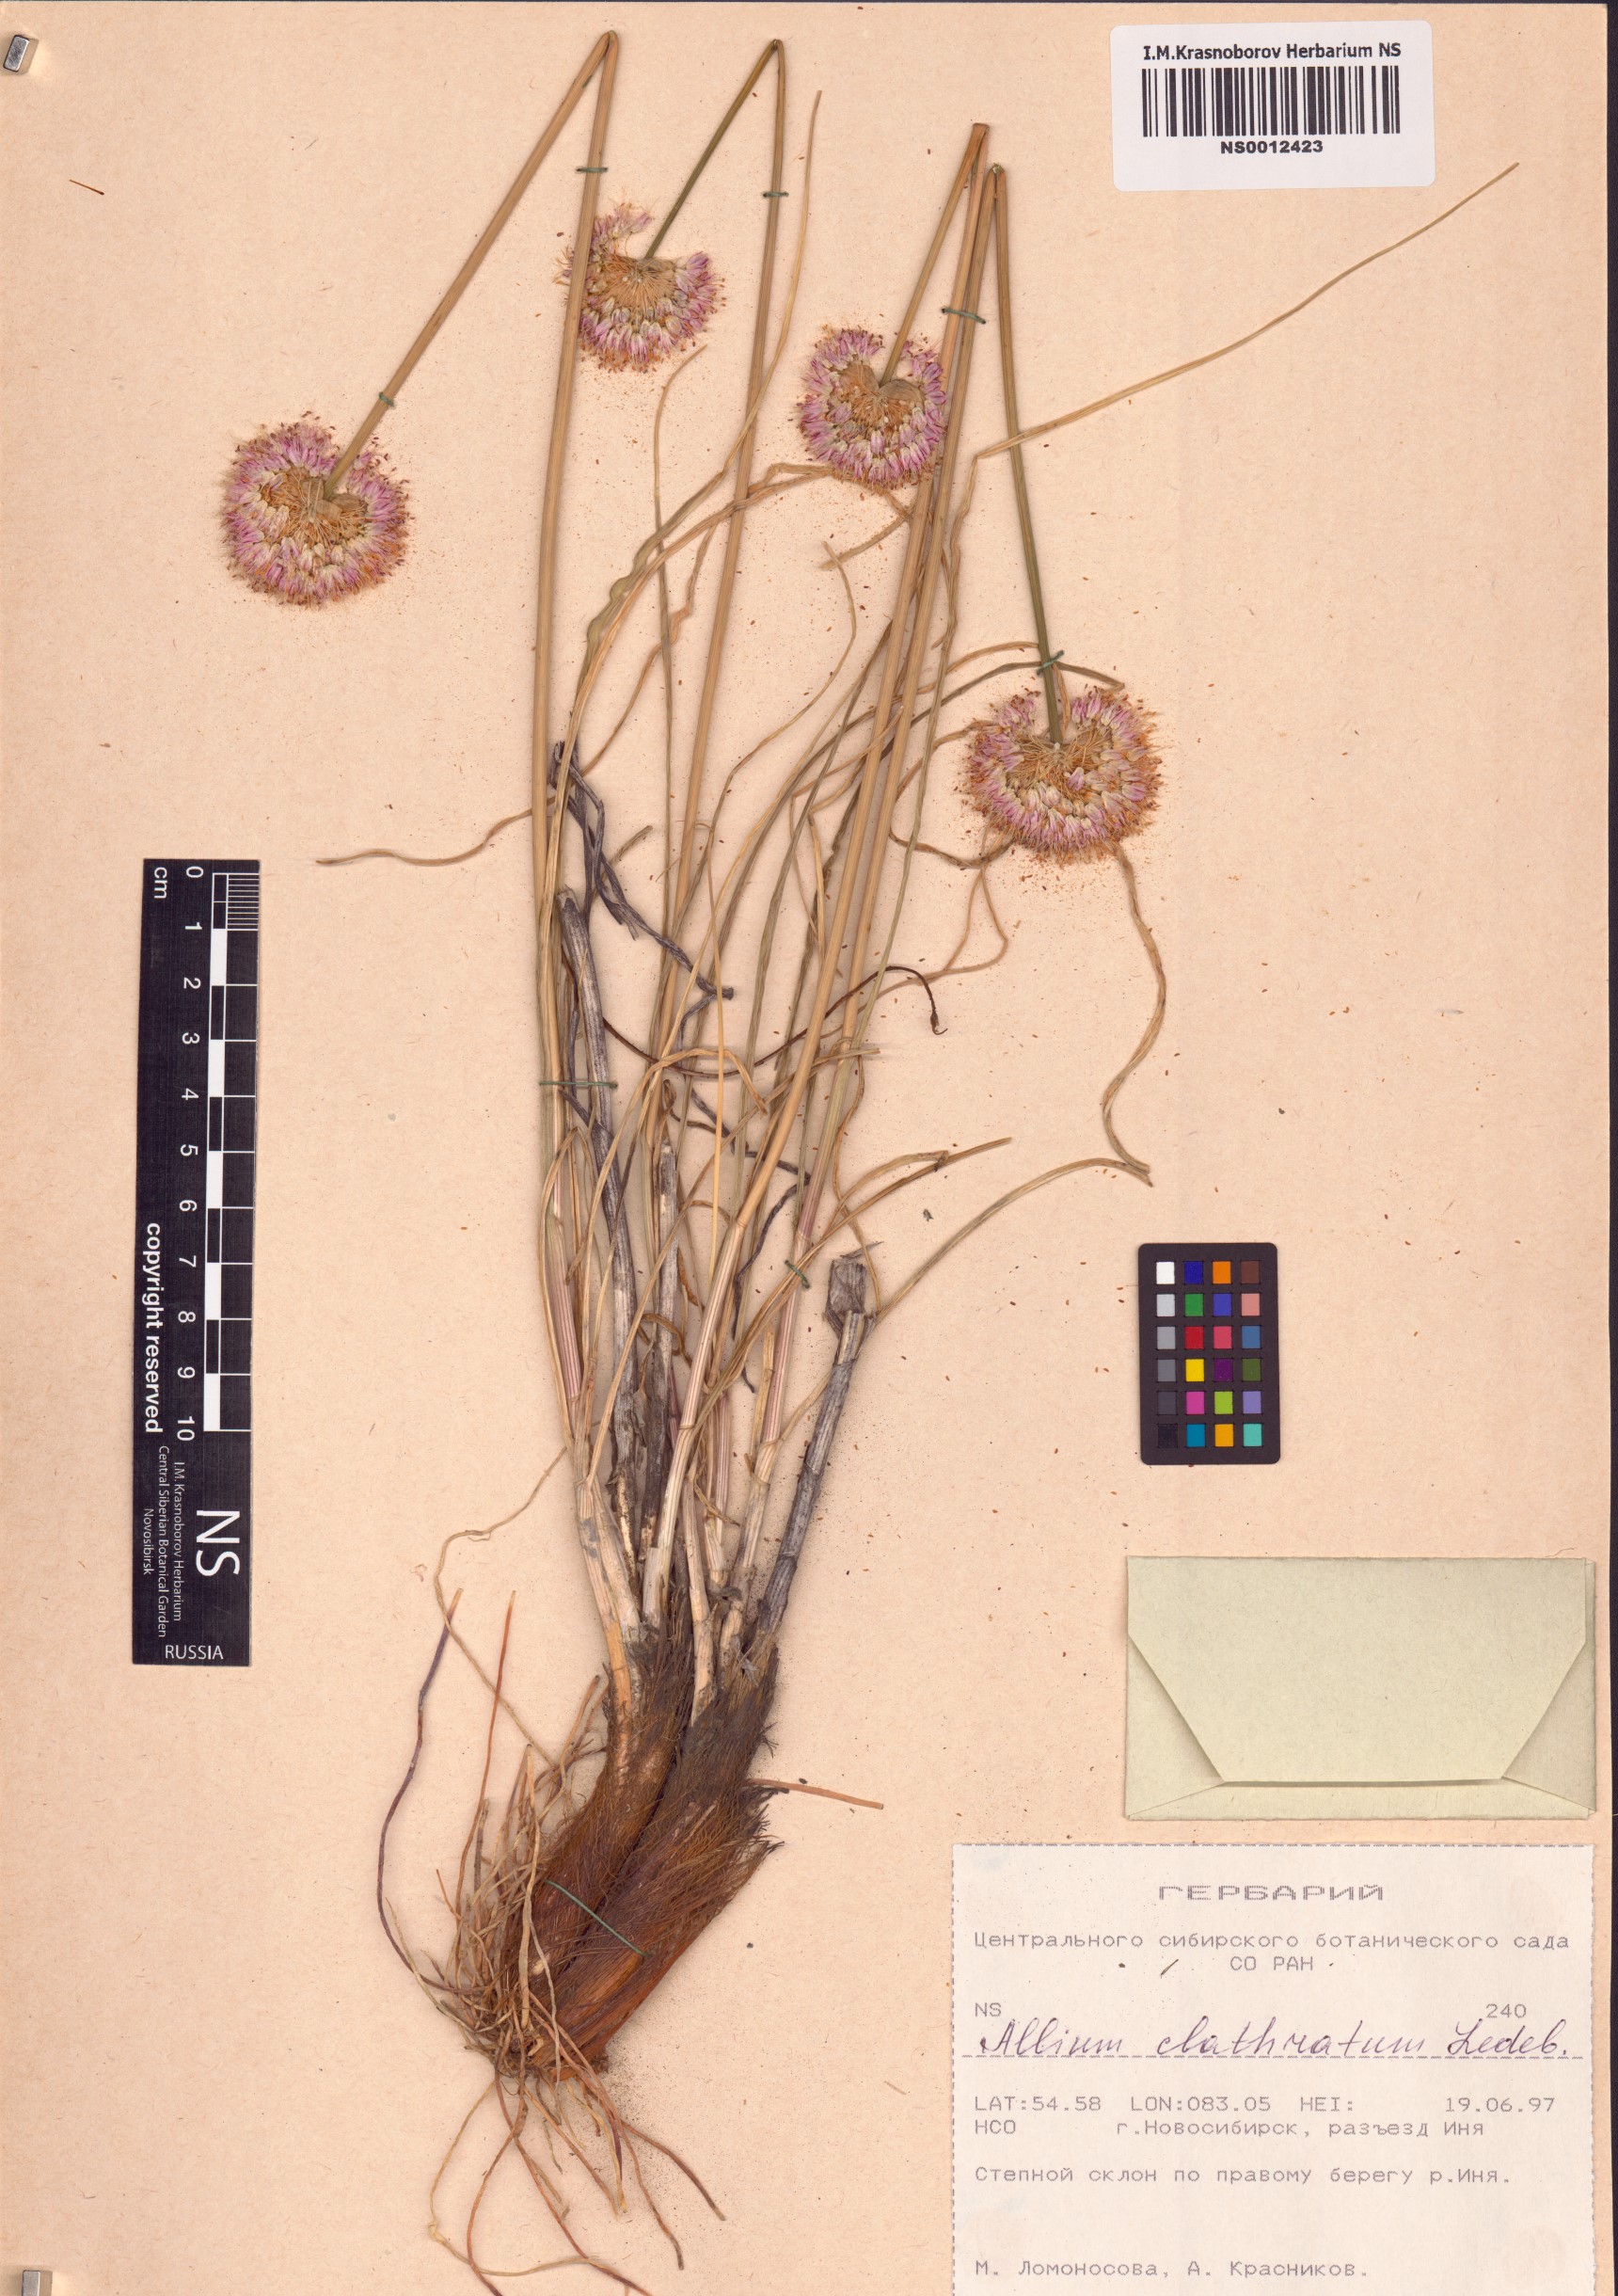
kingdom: Plantae
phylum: Tracheophyta
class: Liliopsida
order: Asparagales
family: Amaryllidaceae
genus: Allium
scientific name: Allium clathratum
